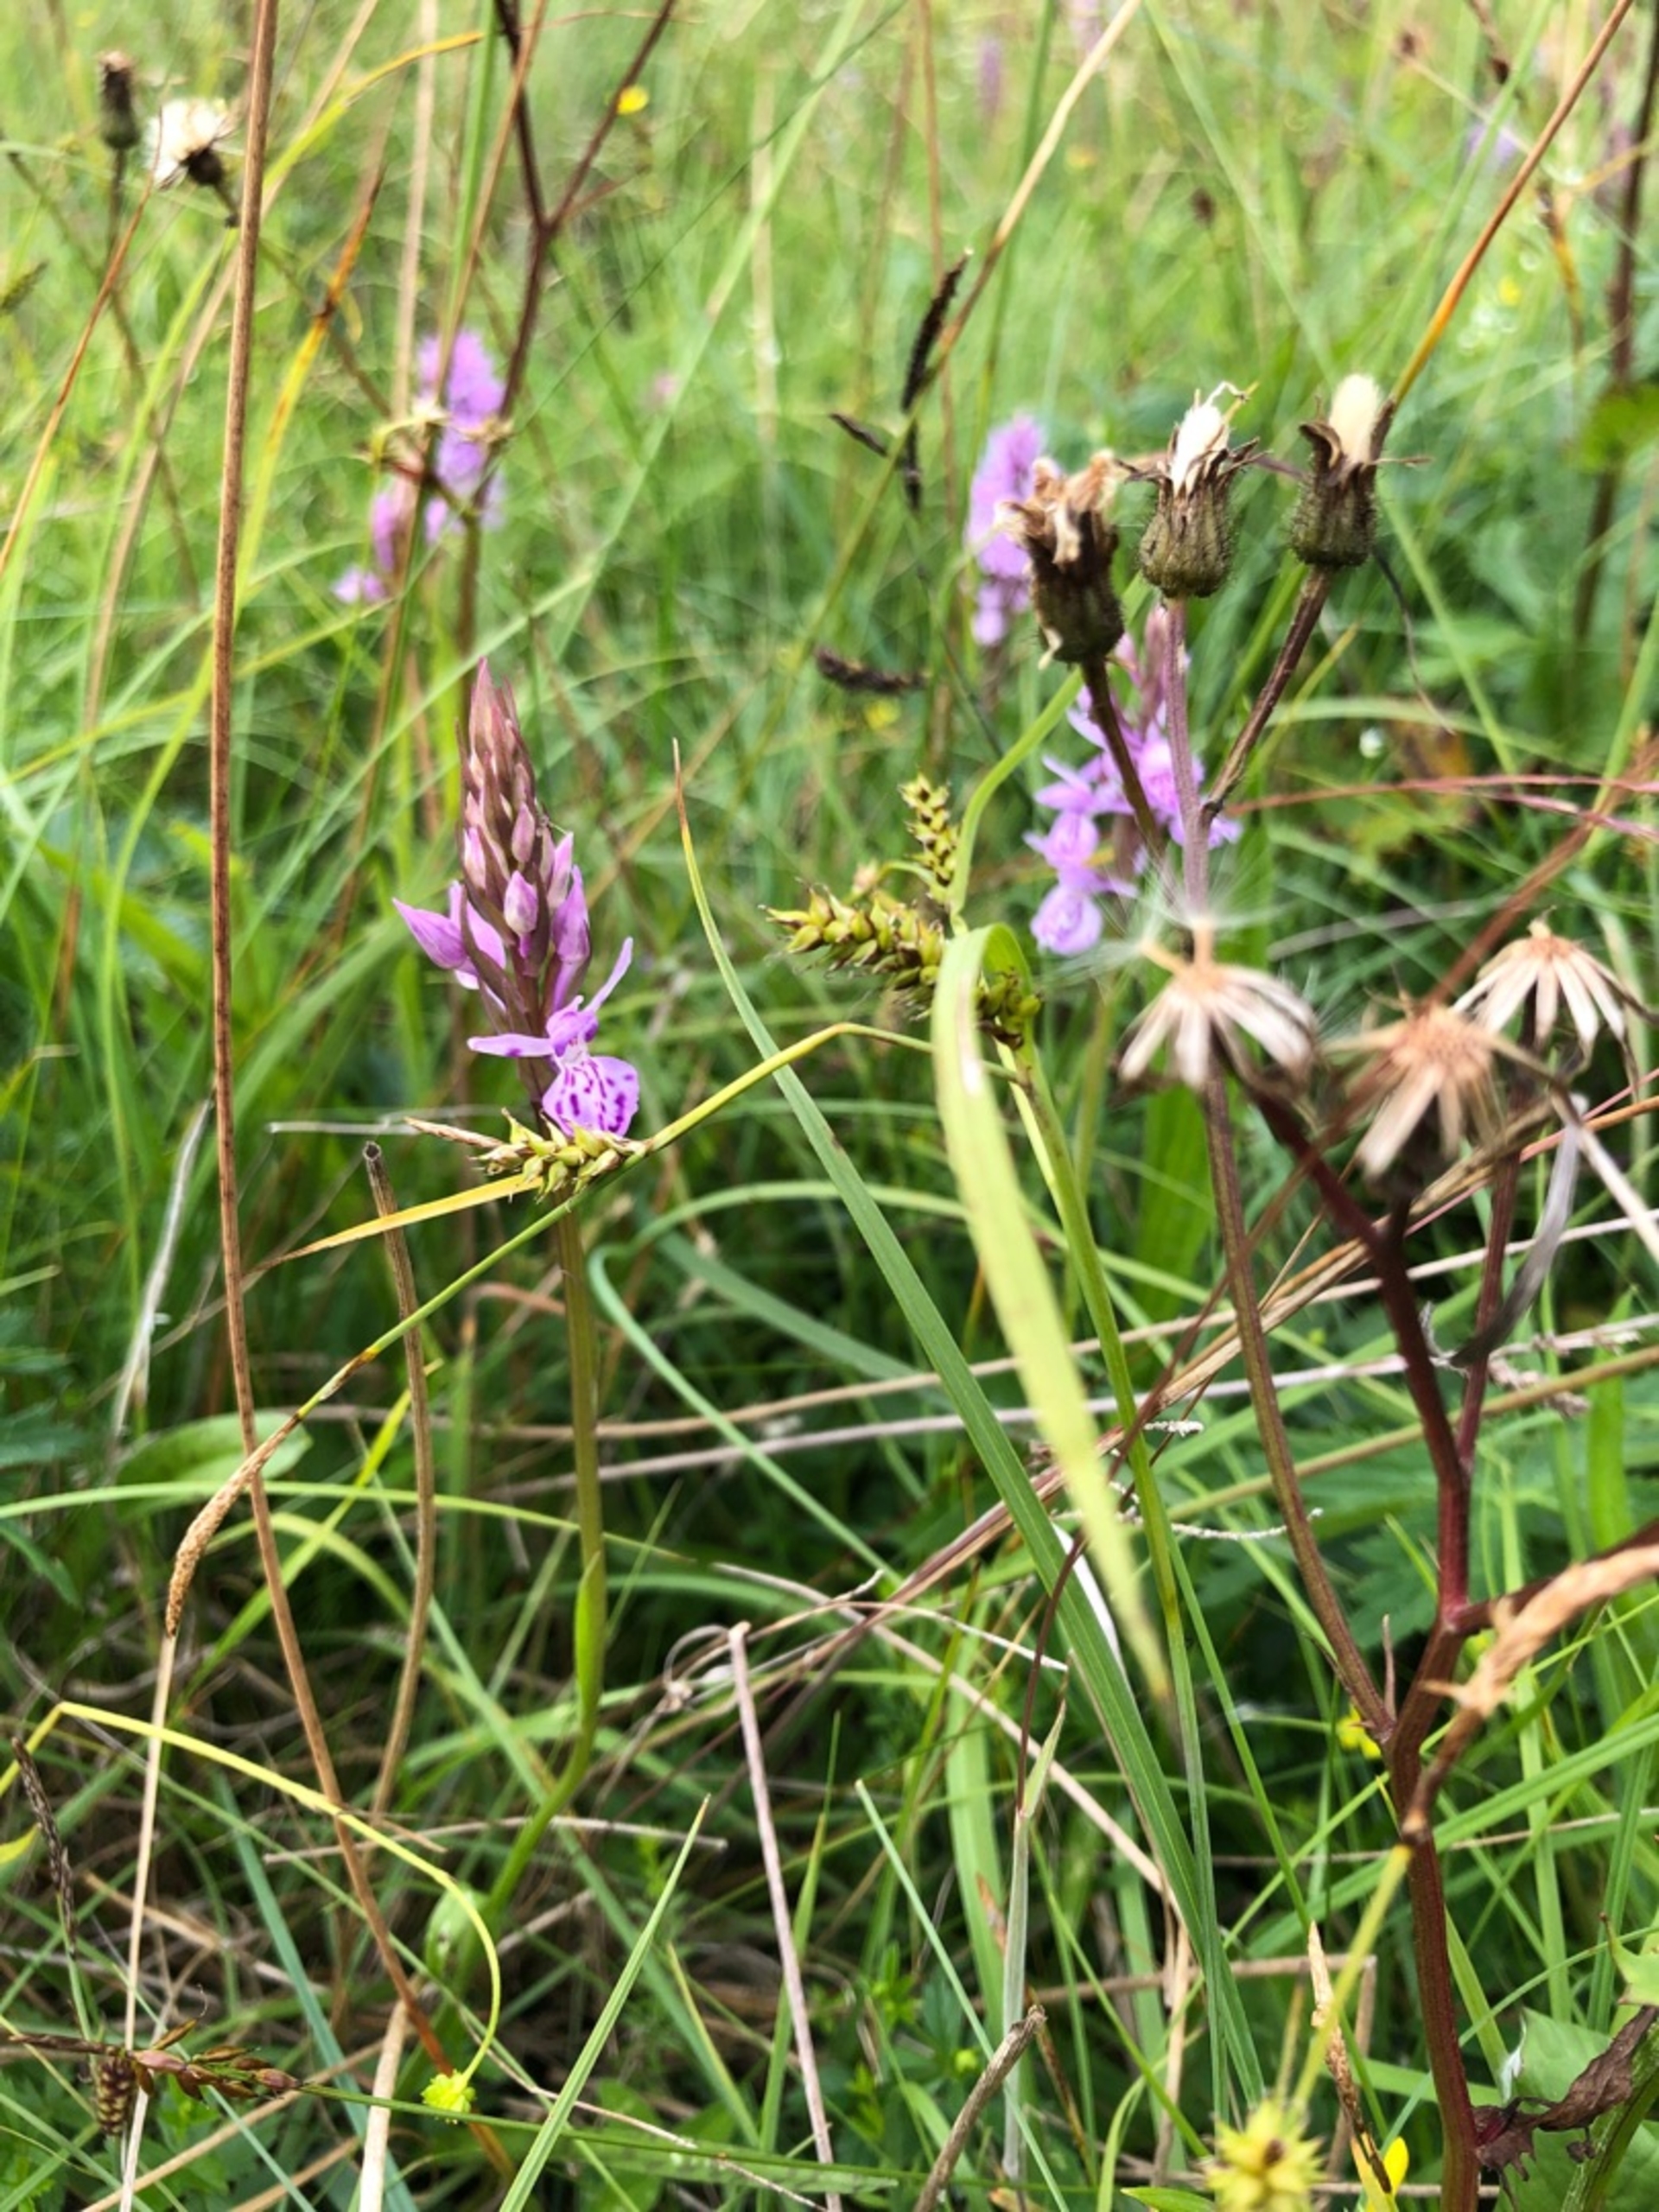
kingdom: Plantae
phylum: Tracheophyta
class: Liliopsida
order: Poales
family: Cyperaceae
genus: Carex
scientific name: Carex hostiana
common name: Skede-star
